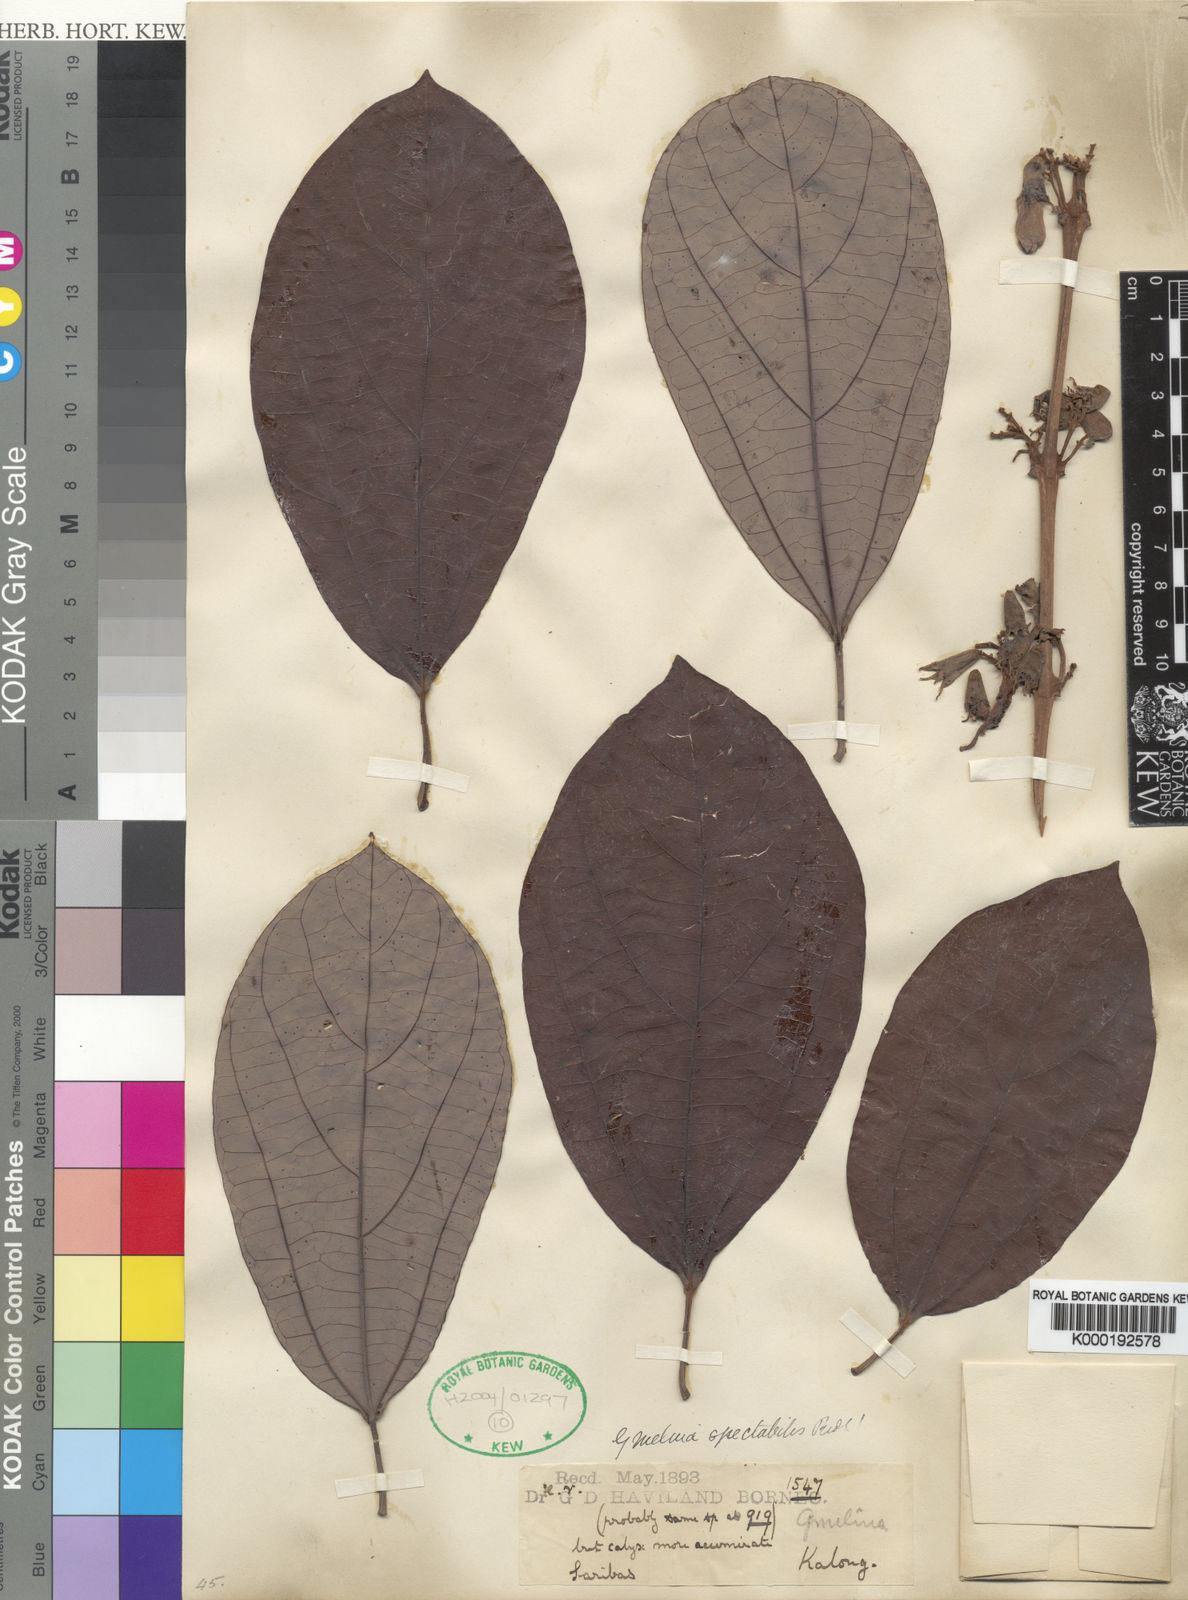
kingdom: Plantae
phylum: Tracheophyta
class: Magnoliopsida
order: Lamiales
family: Lamiaceae
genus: Gmelina
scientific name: Gmelina
